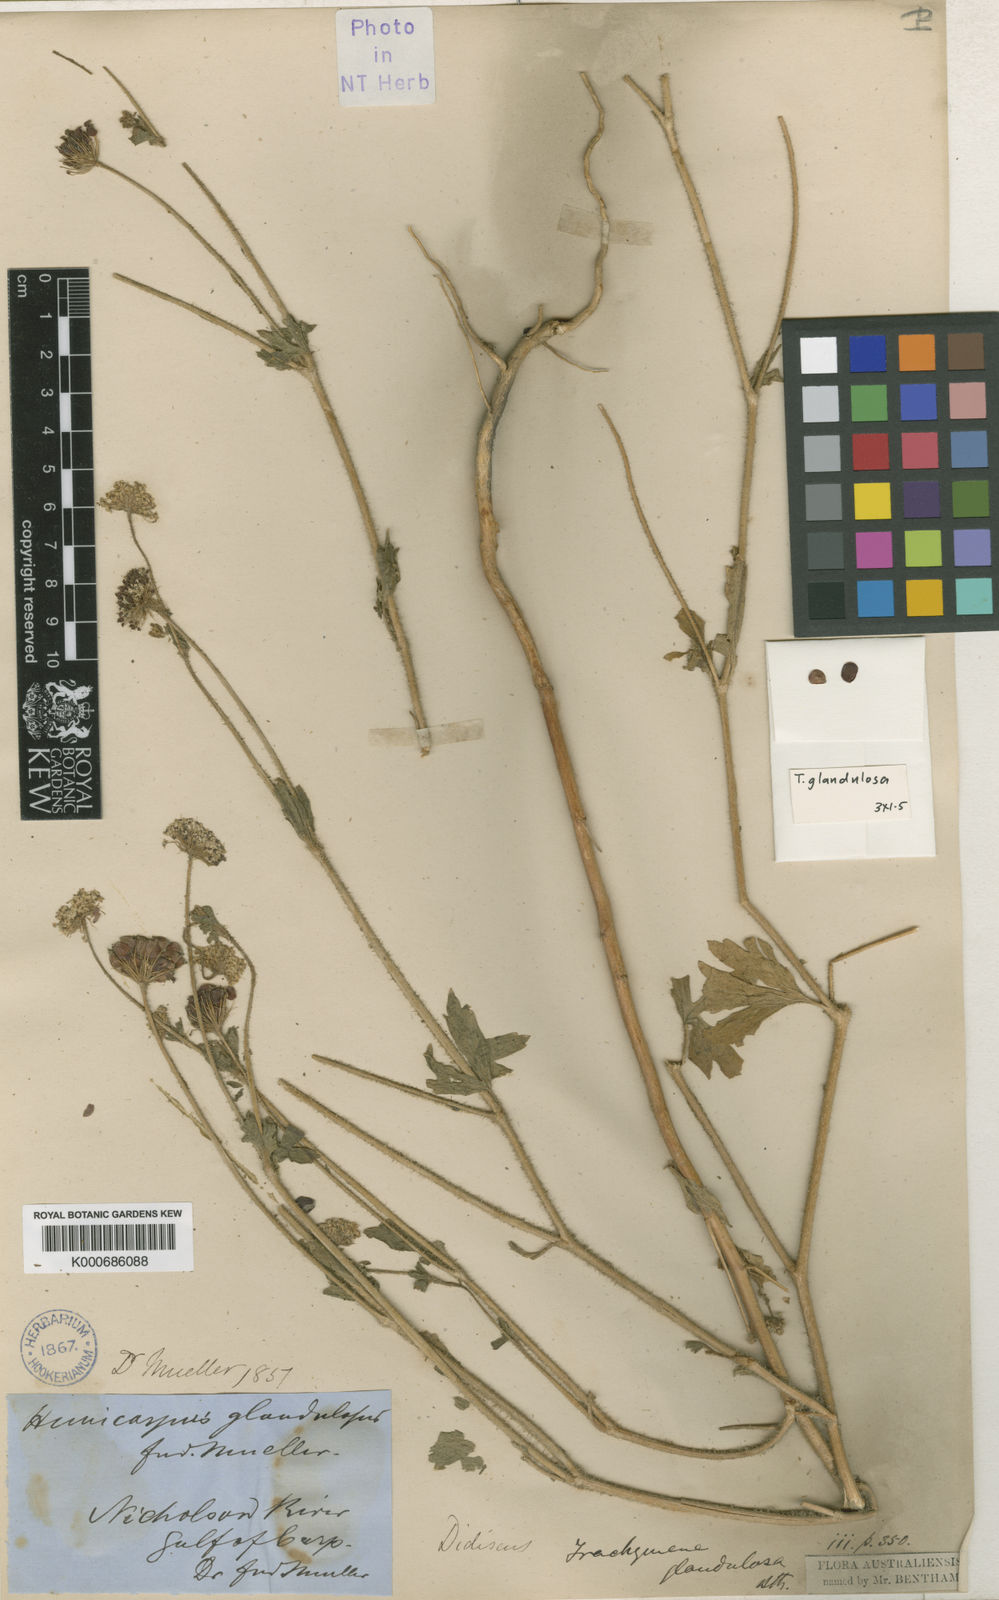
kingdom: Plantae
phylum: Tracheophyta
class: Magnoliopsida
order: Apiales
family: Araliaceae
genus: Trachymene
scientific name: Trachymene glandulosa
